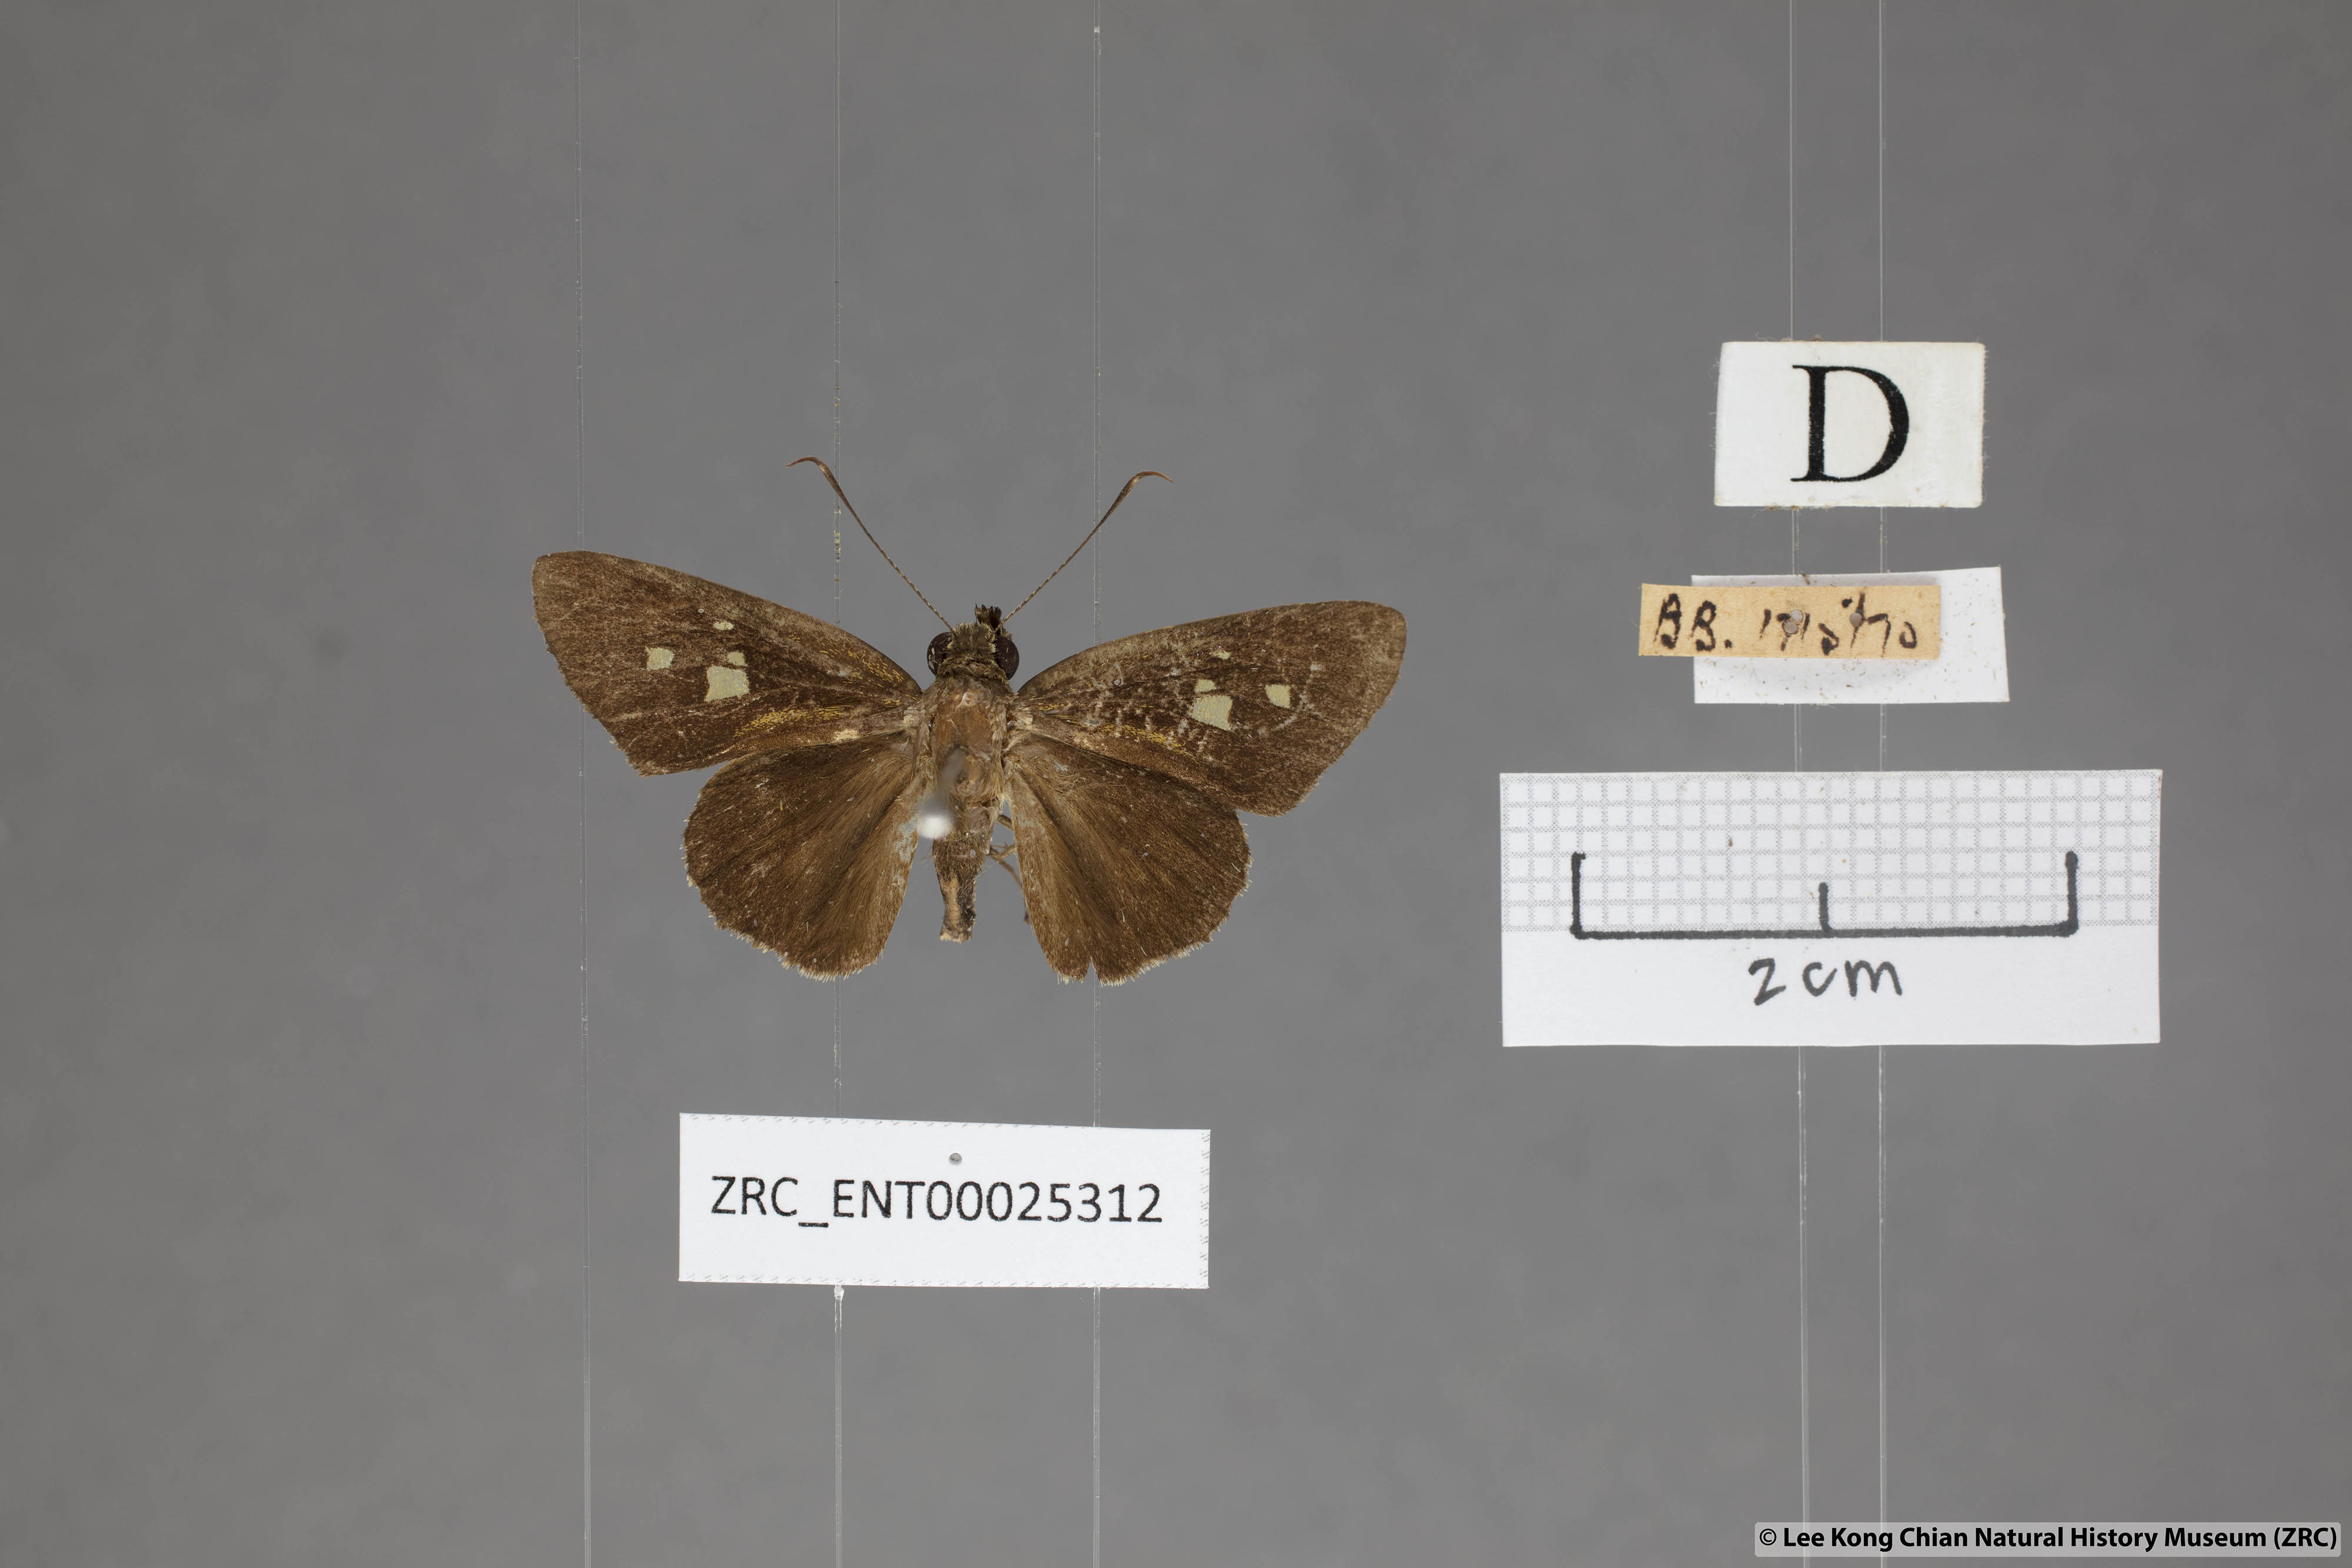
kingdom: Animalia
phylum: Arthropoda
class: Insecta
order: Lepidoptera
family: Hesperiidae
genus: Salanoemia
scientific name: Salanoemia sala
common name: Maculate lancer
